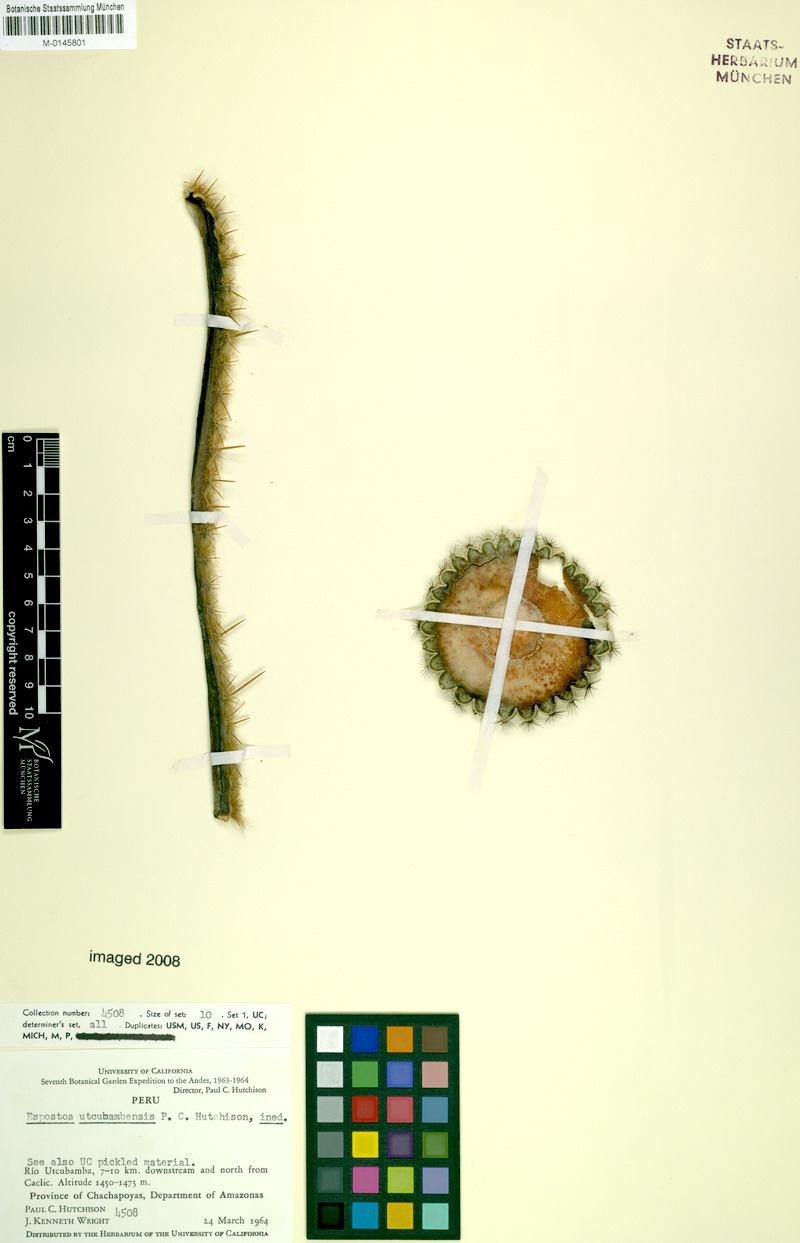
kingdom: Plantae
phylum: Tracheophyta
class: Magnoliopsida
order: Caryophyllales
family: Cactaceae
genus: Espostoa
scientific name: Espostoa calva
